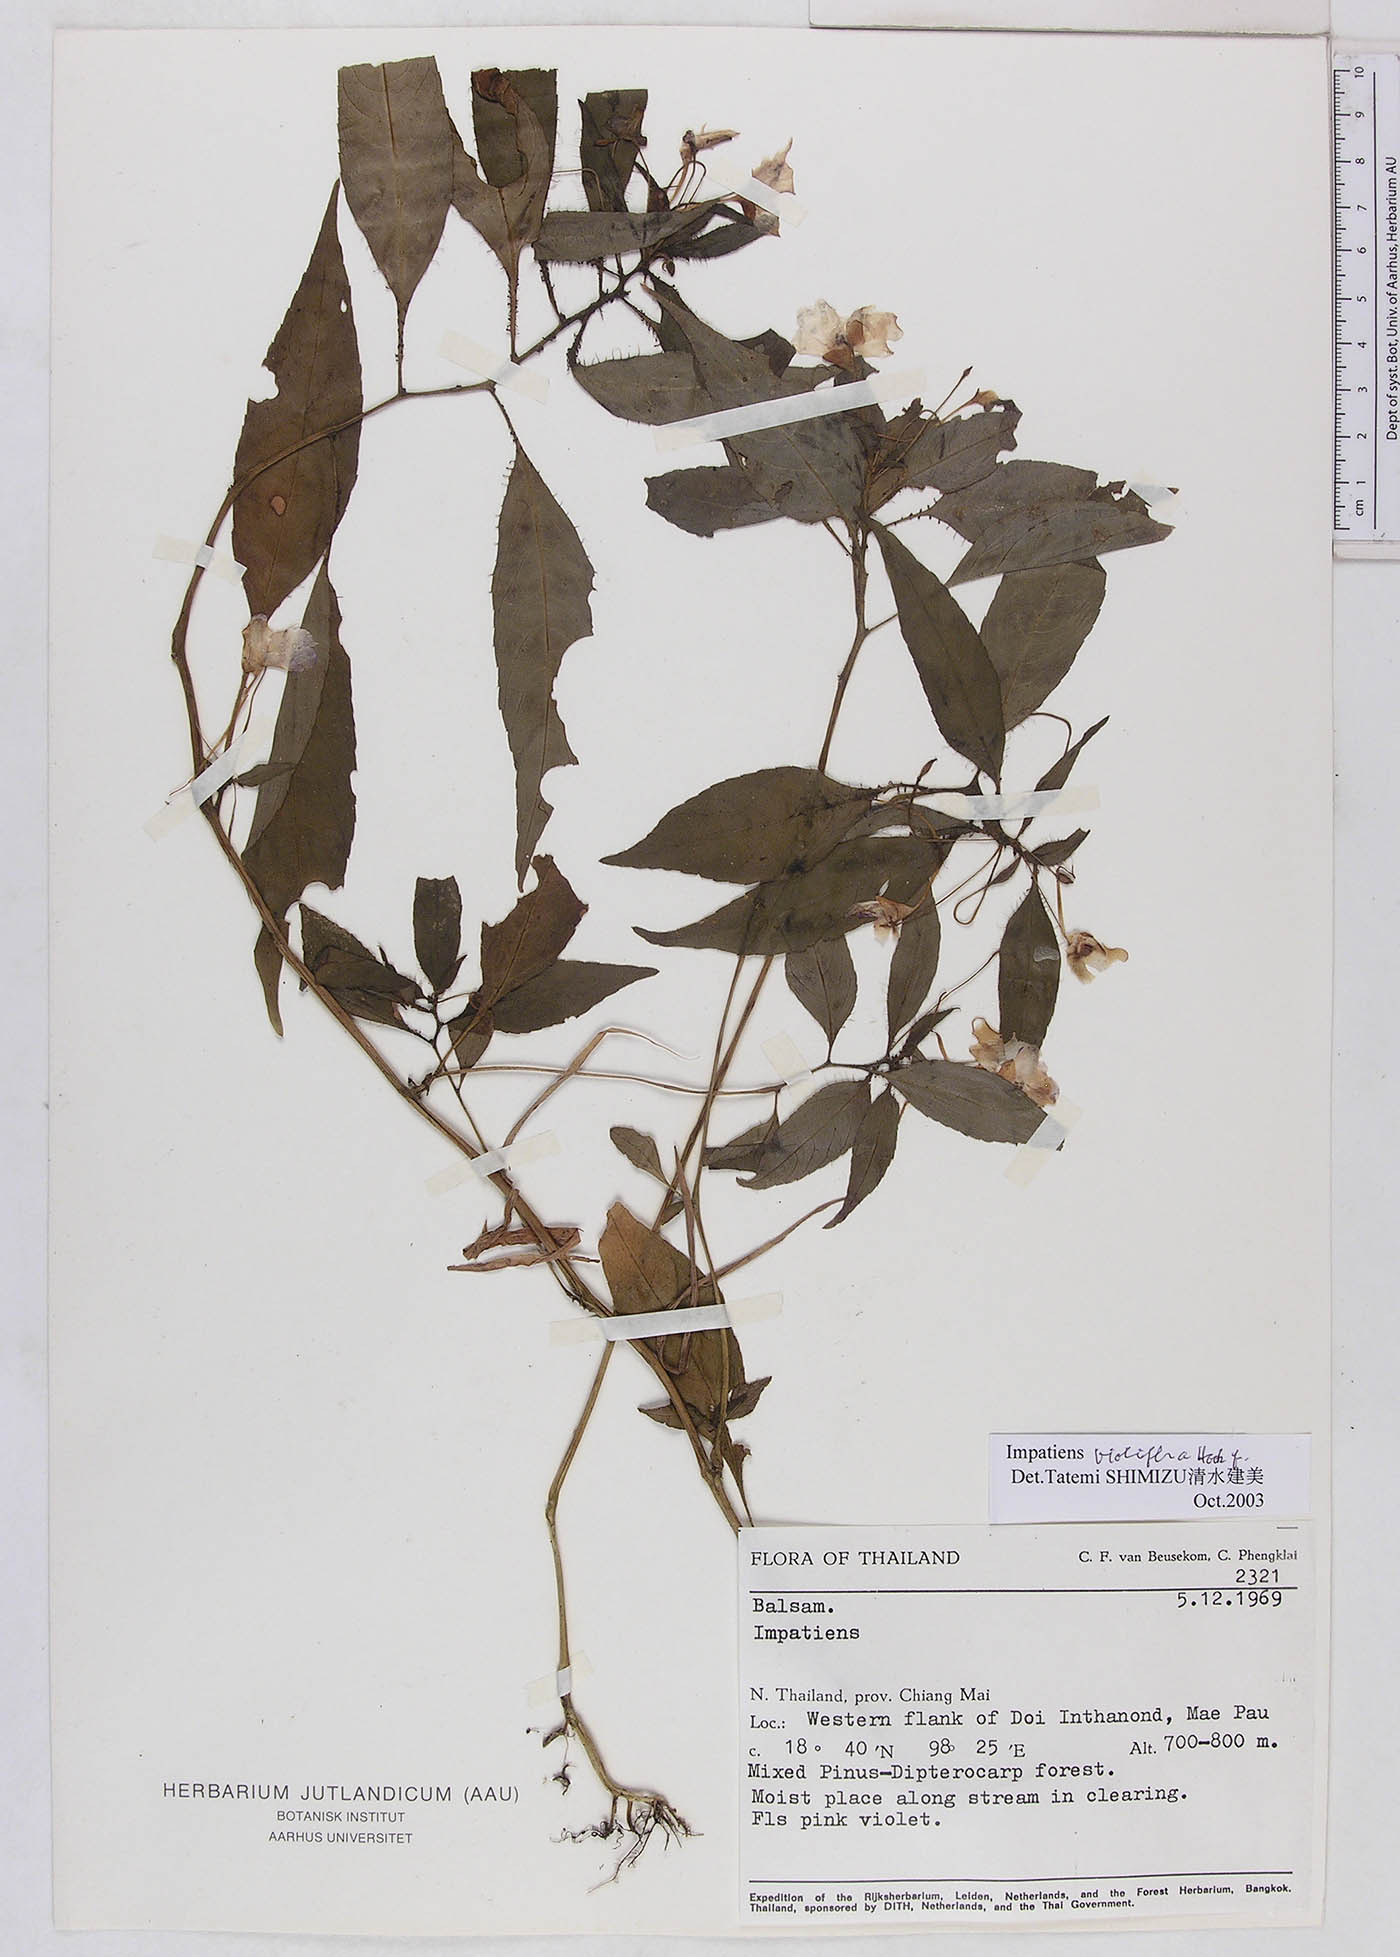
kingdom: Plantae
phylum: Tracheophyta
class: Magnoliopsida
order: Ericales
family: Balsaminaceae
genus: Impatiens
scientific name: Impatiens violiflora
